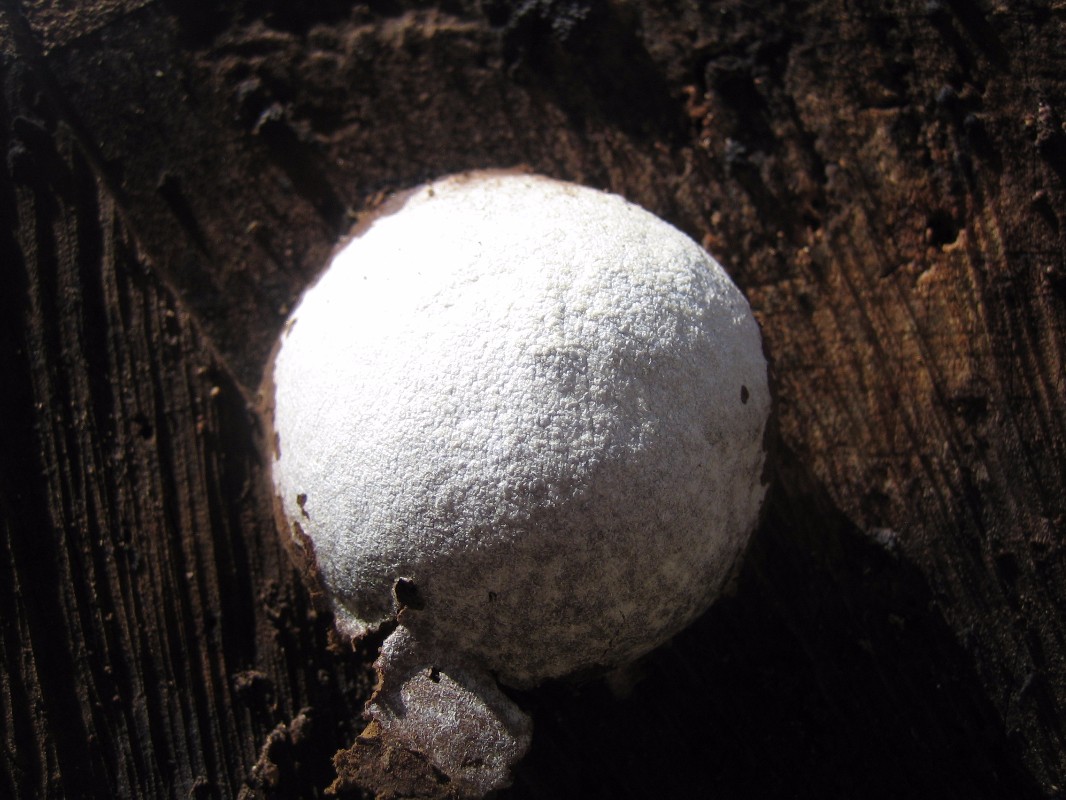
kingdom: Protozoa
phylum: Mycetozoa
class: Myxomycetes
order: Cribrariales
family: Tubiferaceae
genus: Reticularia
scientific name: Reticularia lycoperdon
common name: skinnende støvpude
